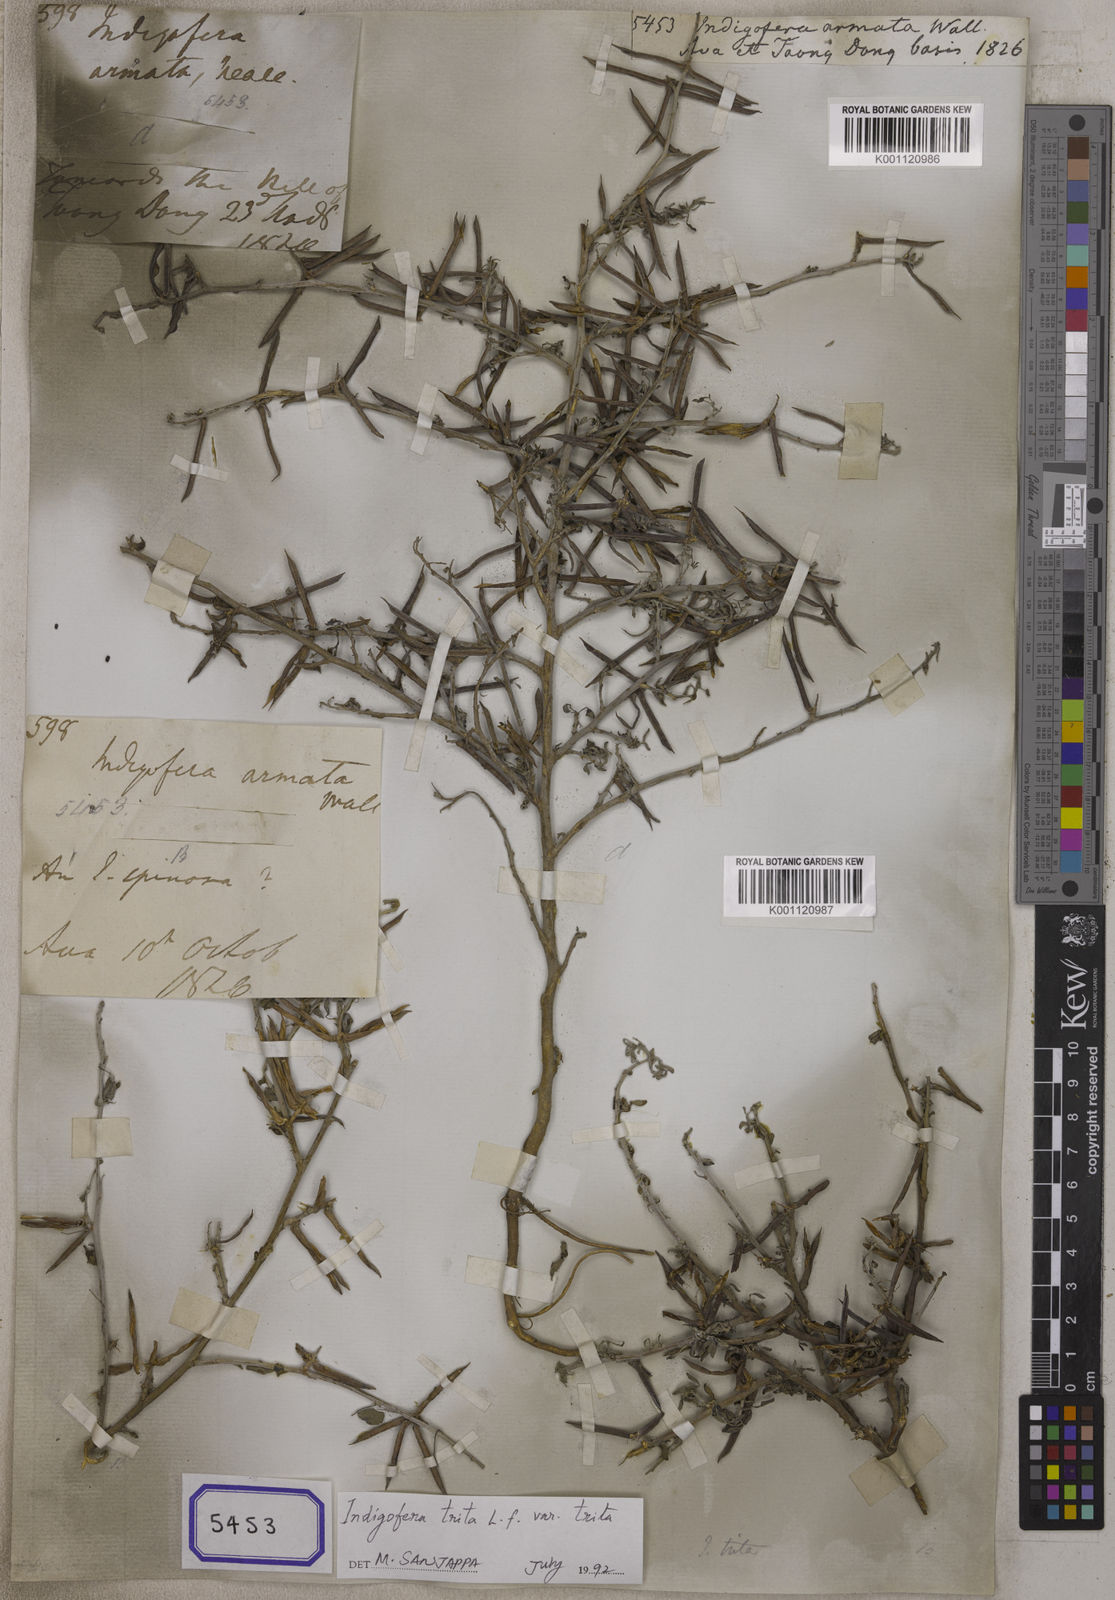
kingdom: Plantae
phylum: Tracheophyta
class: Magnoliopsida
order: Fabales
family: Fabaceae
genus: Indigofera
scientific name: Indigofera trita
